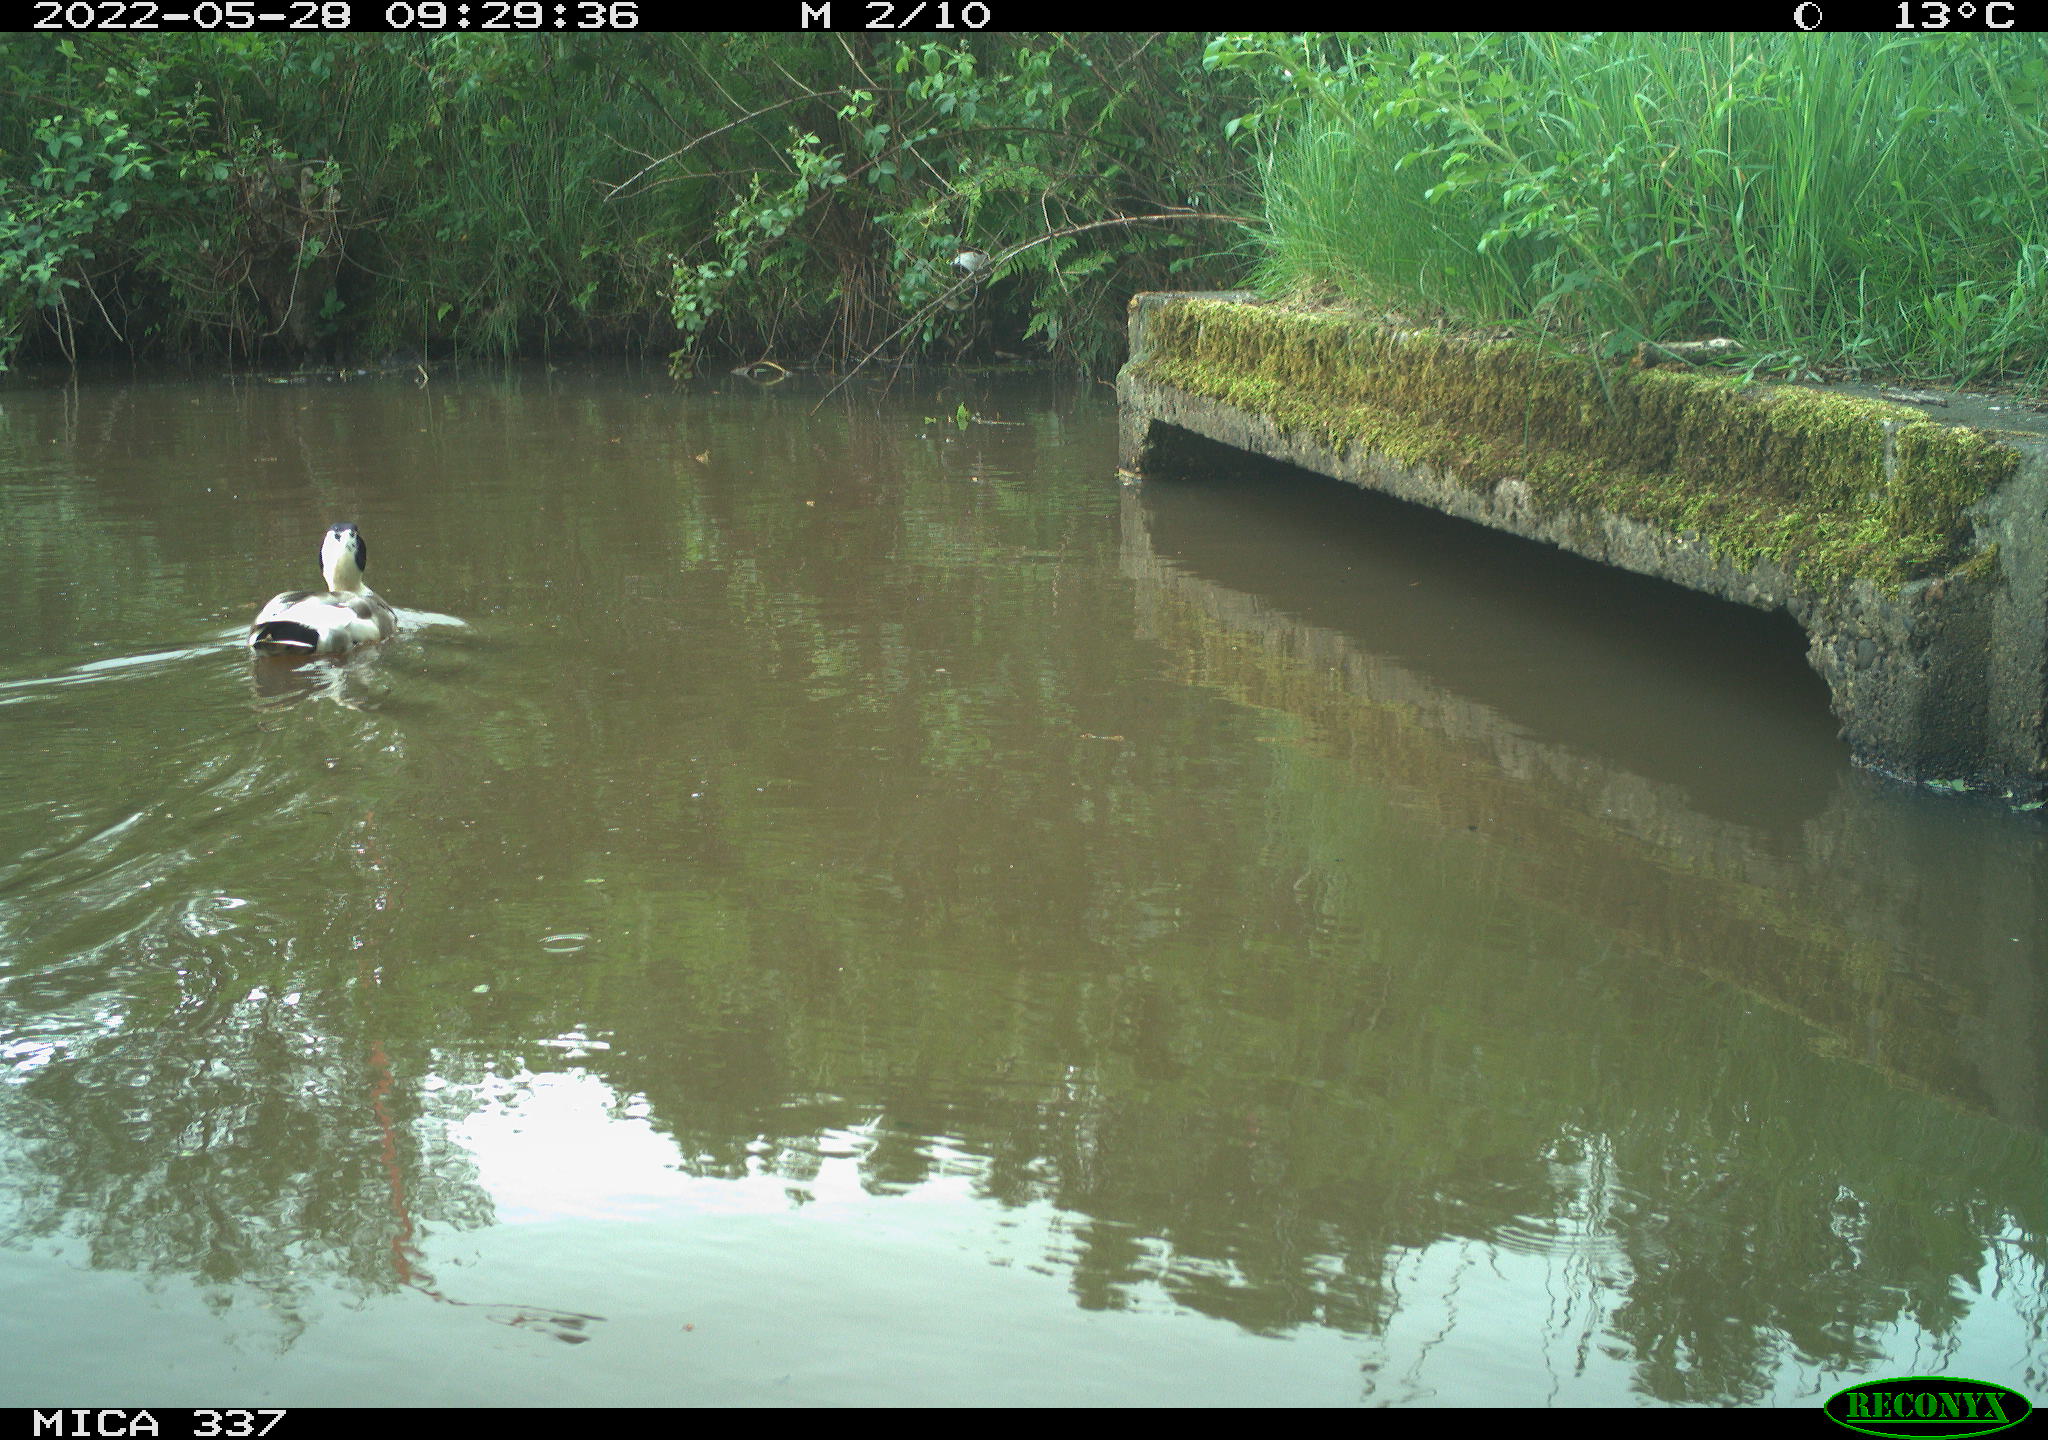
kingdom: Animalia
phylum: Chordata
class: Aves
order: Anseriformes
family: Anatidae
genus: Anas
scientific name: Anas platyrhynchos
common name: Mallard
